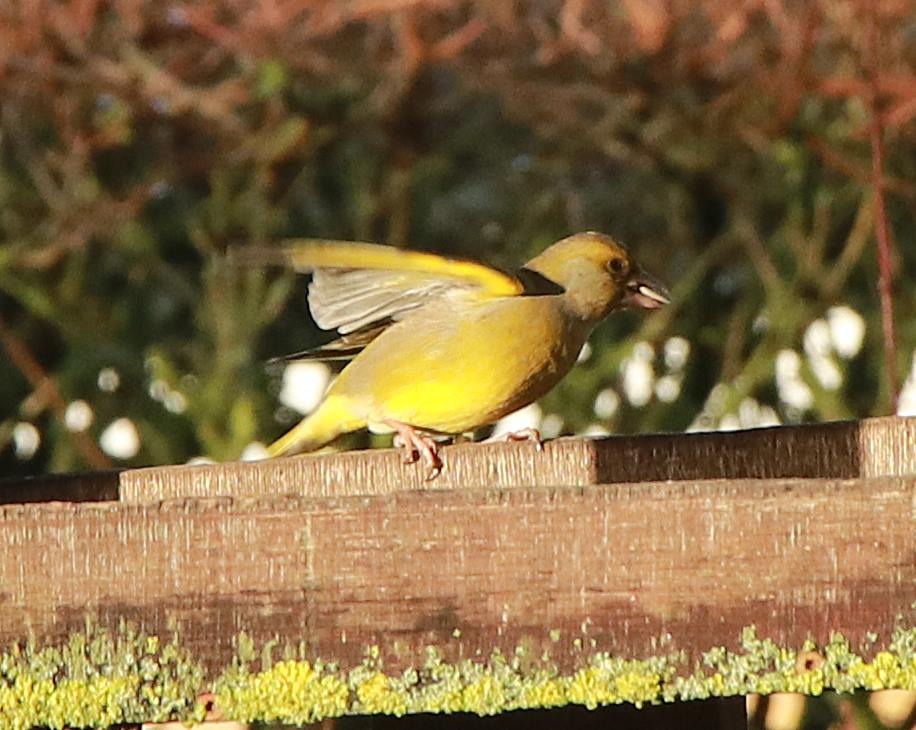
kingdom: Plantae
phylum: Tracheophyta
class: Liliopsida
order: Poales
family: Poaceae
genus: Chloris
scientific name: Chloris chloris
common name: Grønirisk
